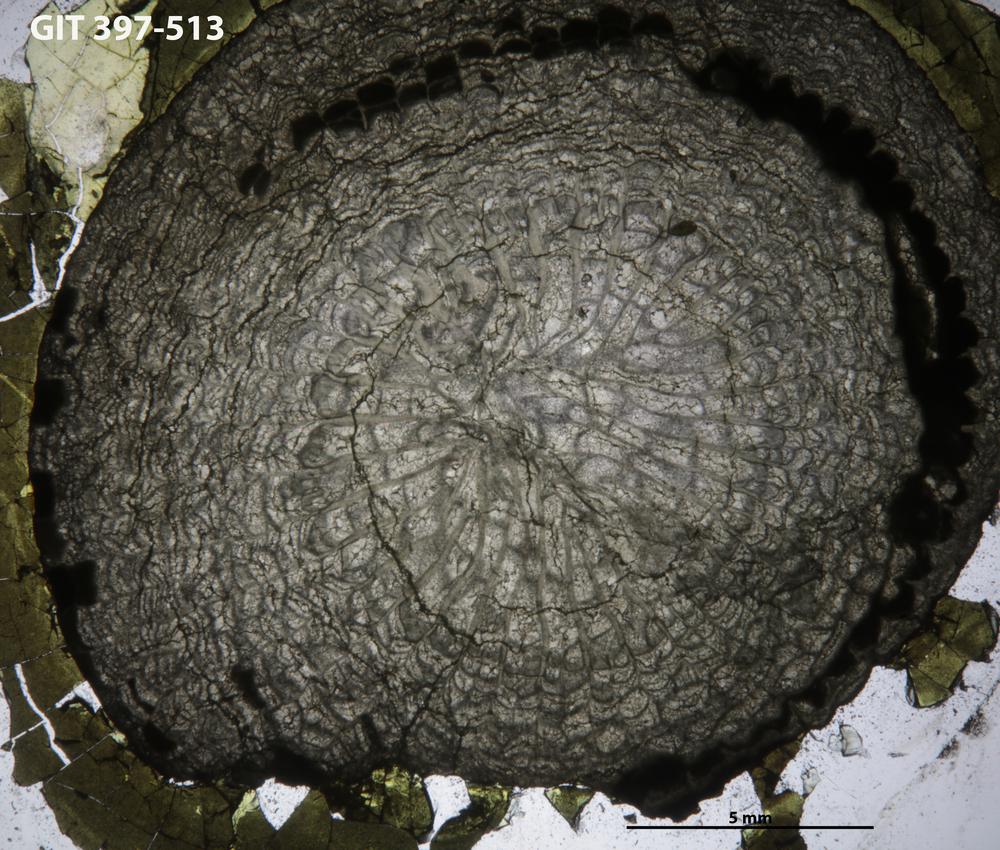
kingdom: Animalia
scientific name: Animalia
